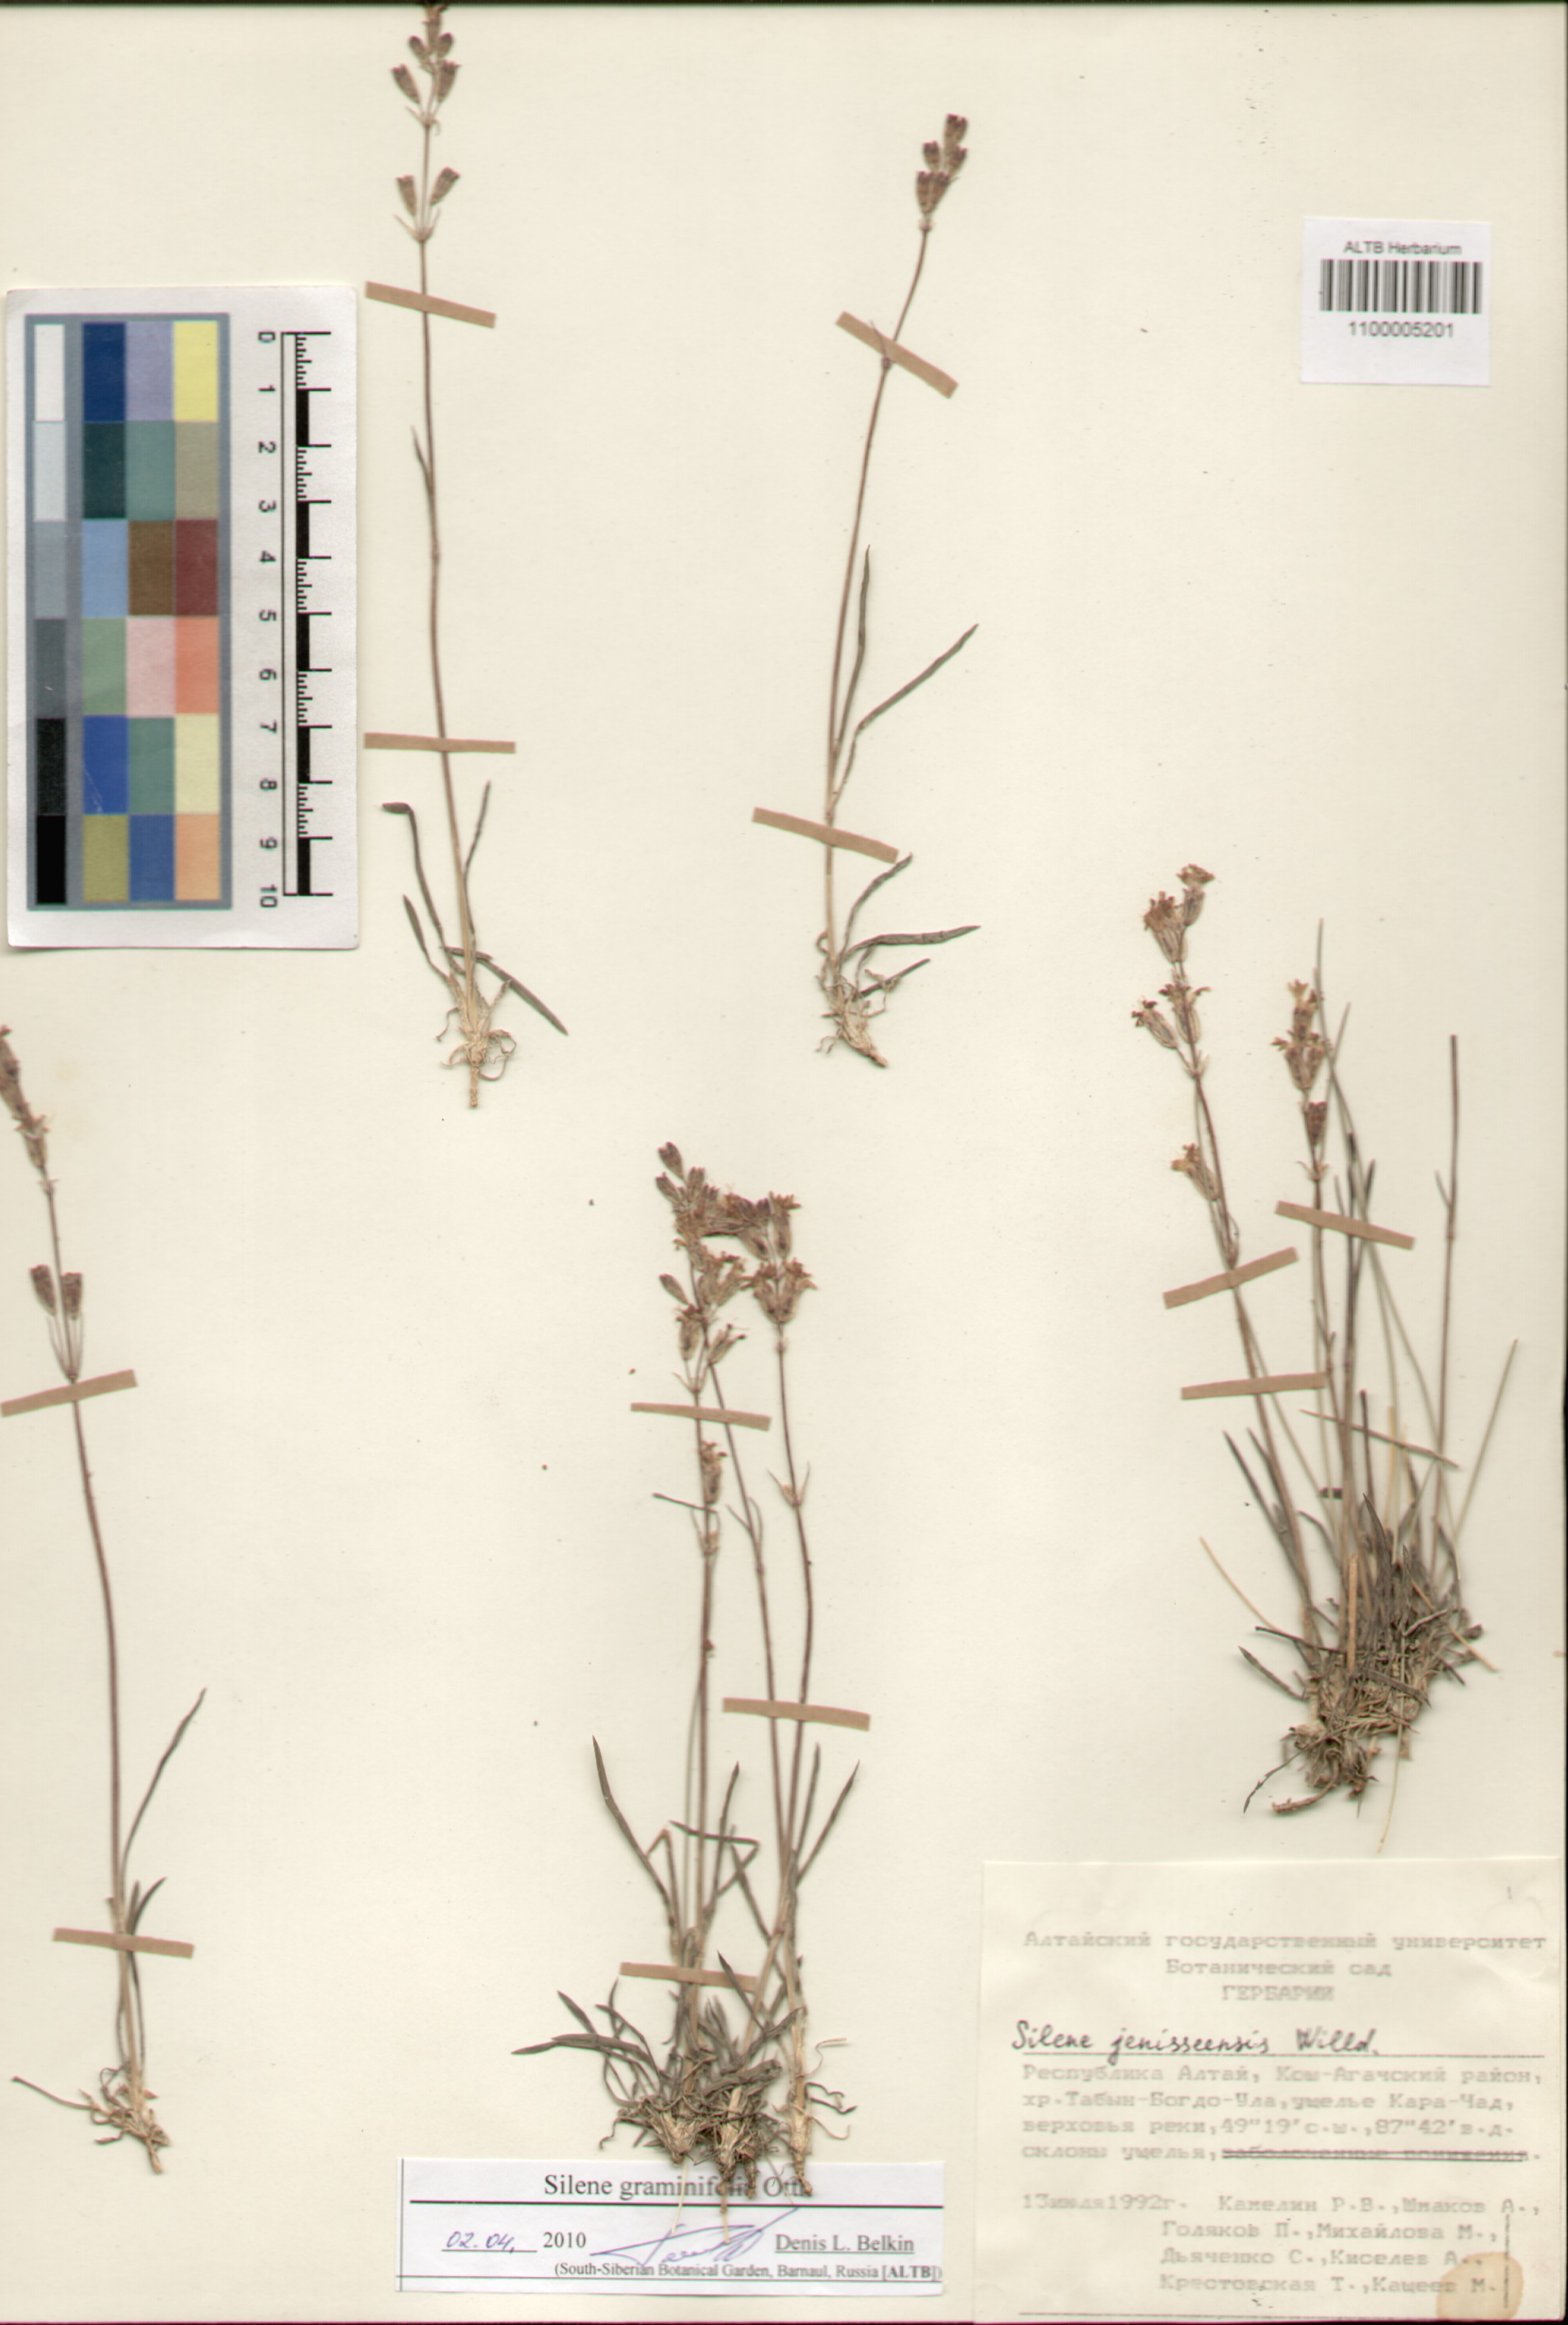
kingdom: Plantae
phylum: Tracheophyta
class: Magnoliopsida
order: Caryophyllales
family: Caryophyllaceae
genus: Silene
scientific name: Silene graminifolia
